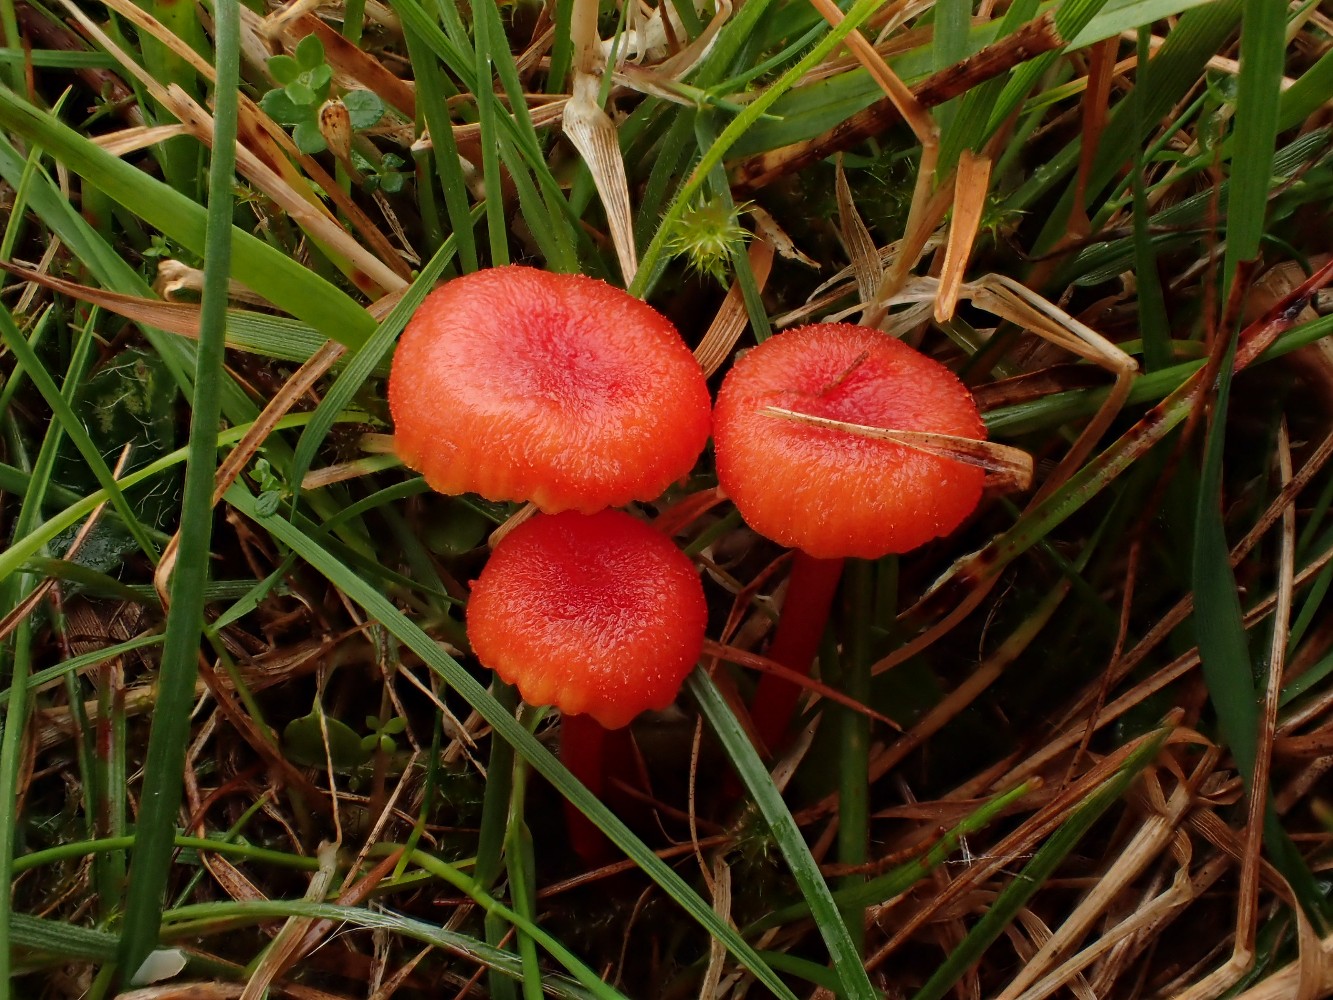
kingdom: Fungi
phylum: Basidiomycota
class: Agaricomycetes
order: Agaricales
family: Hygrophoraceae
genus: Hygrocybe
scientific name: Hygrocybe cantharellus
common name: kantarel-vokshat
